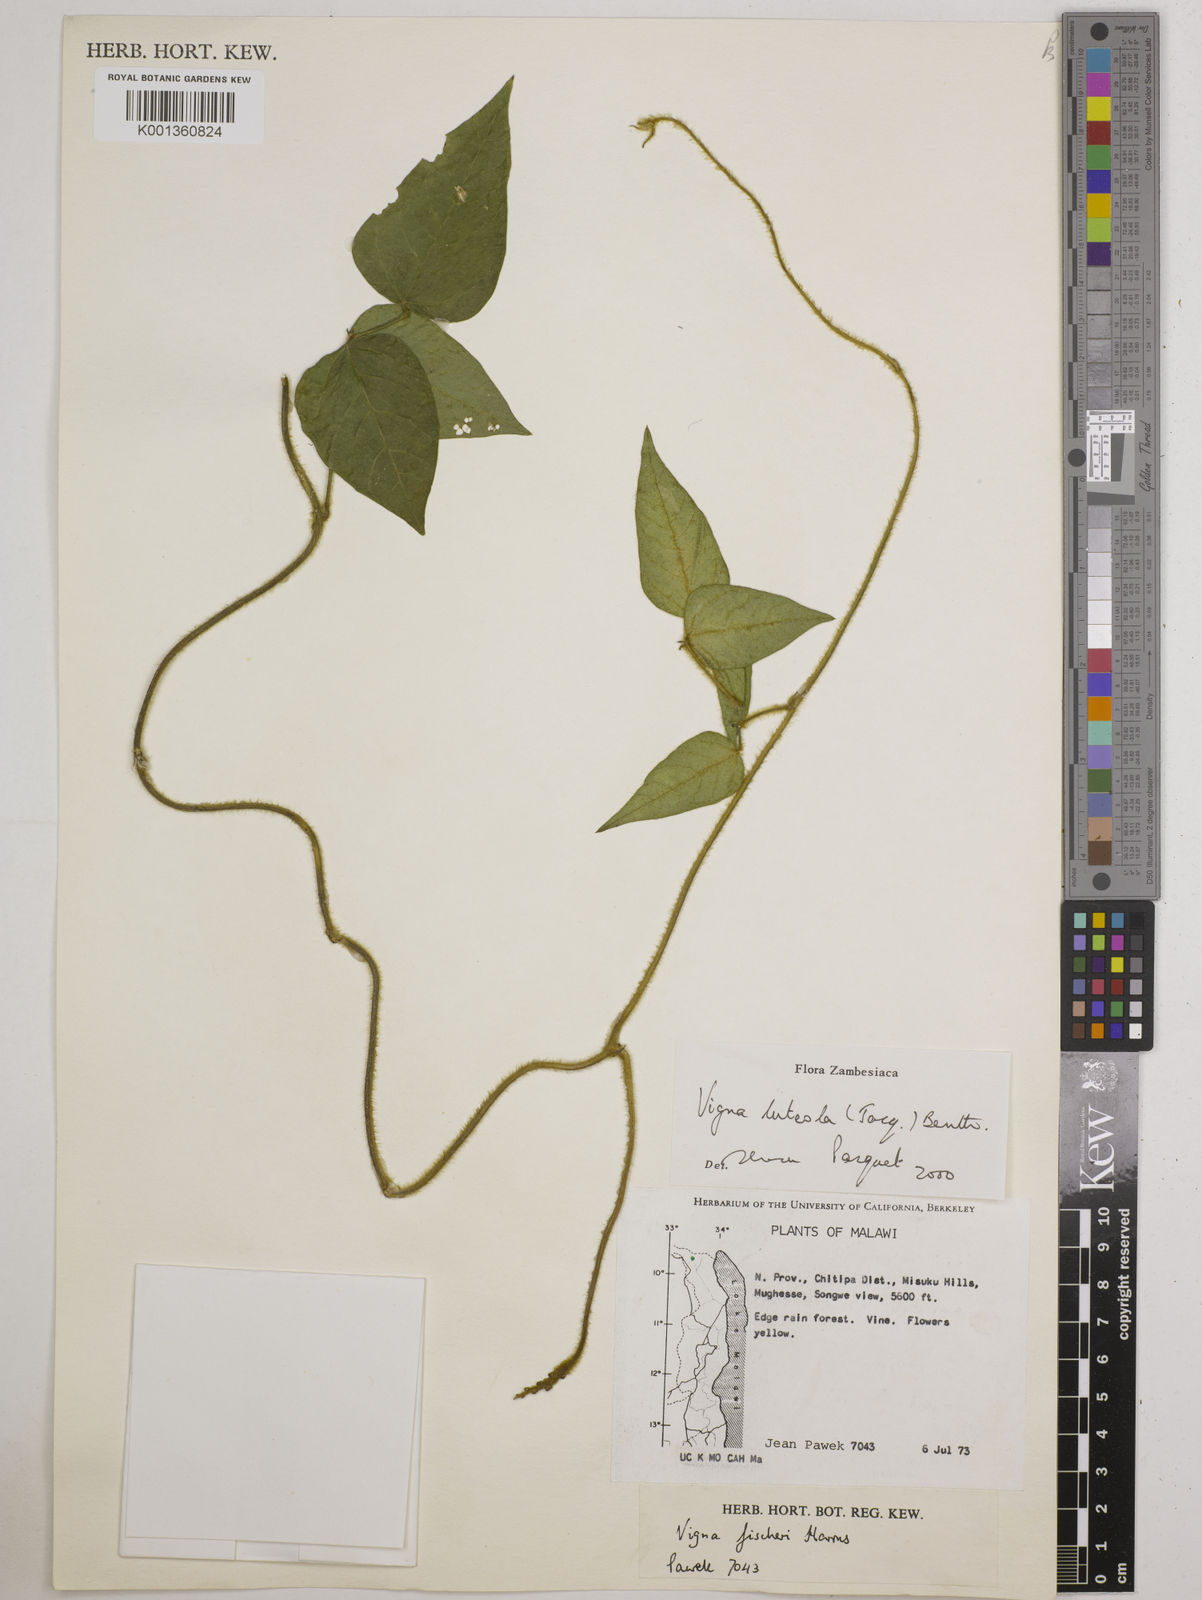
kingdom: Plantae
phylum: Tracheophyta
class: Magnoliopsida
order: Fabales
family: Fabaceae
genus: Vigna
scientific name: Vigna luteola
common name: Hairypod cowpea
